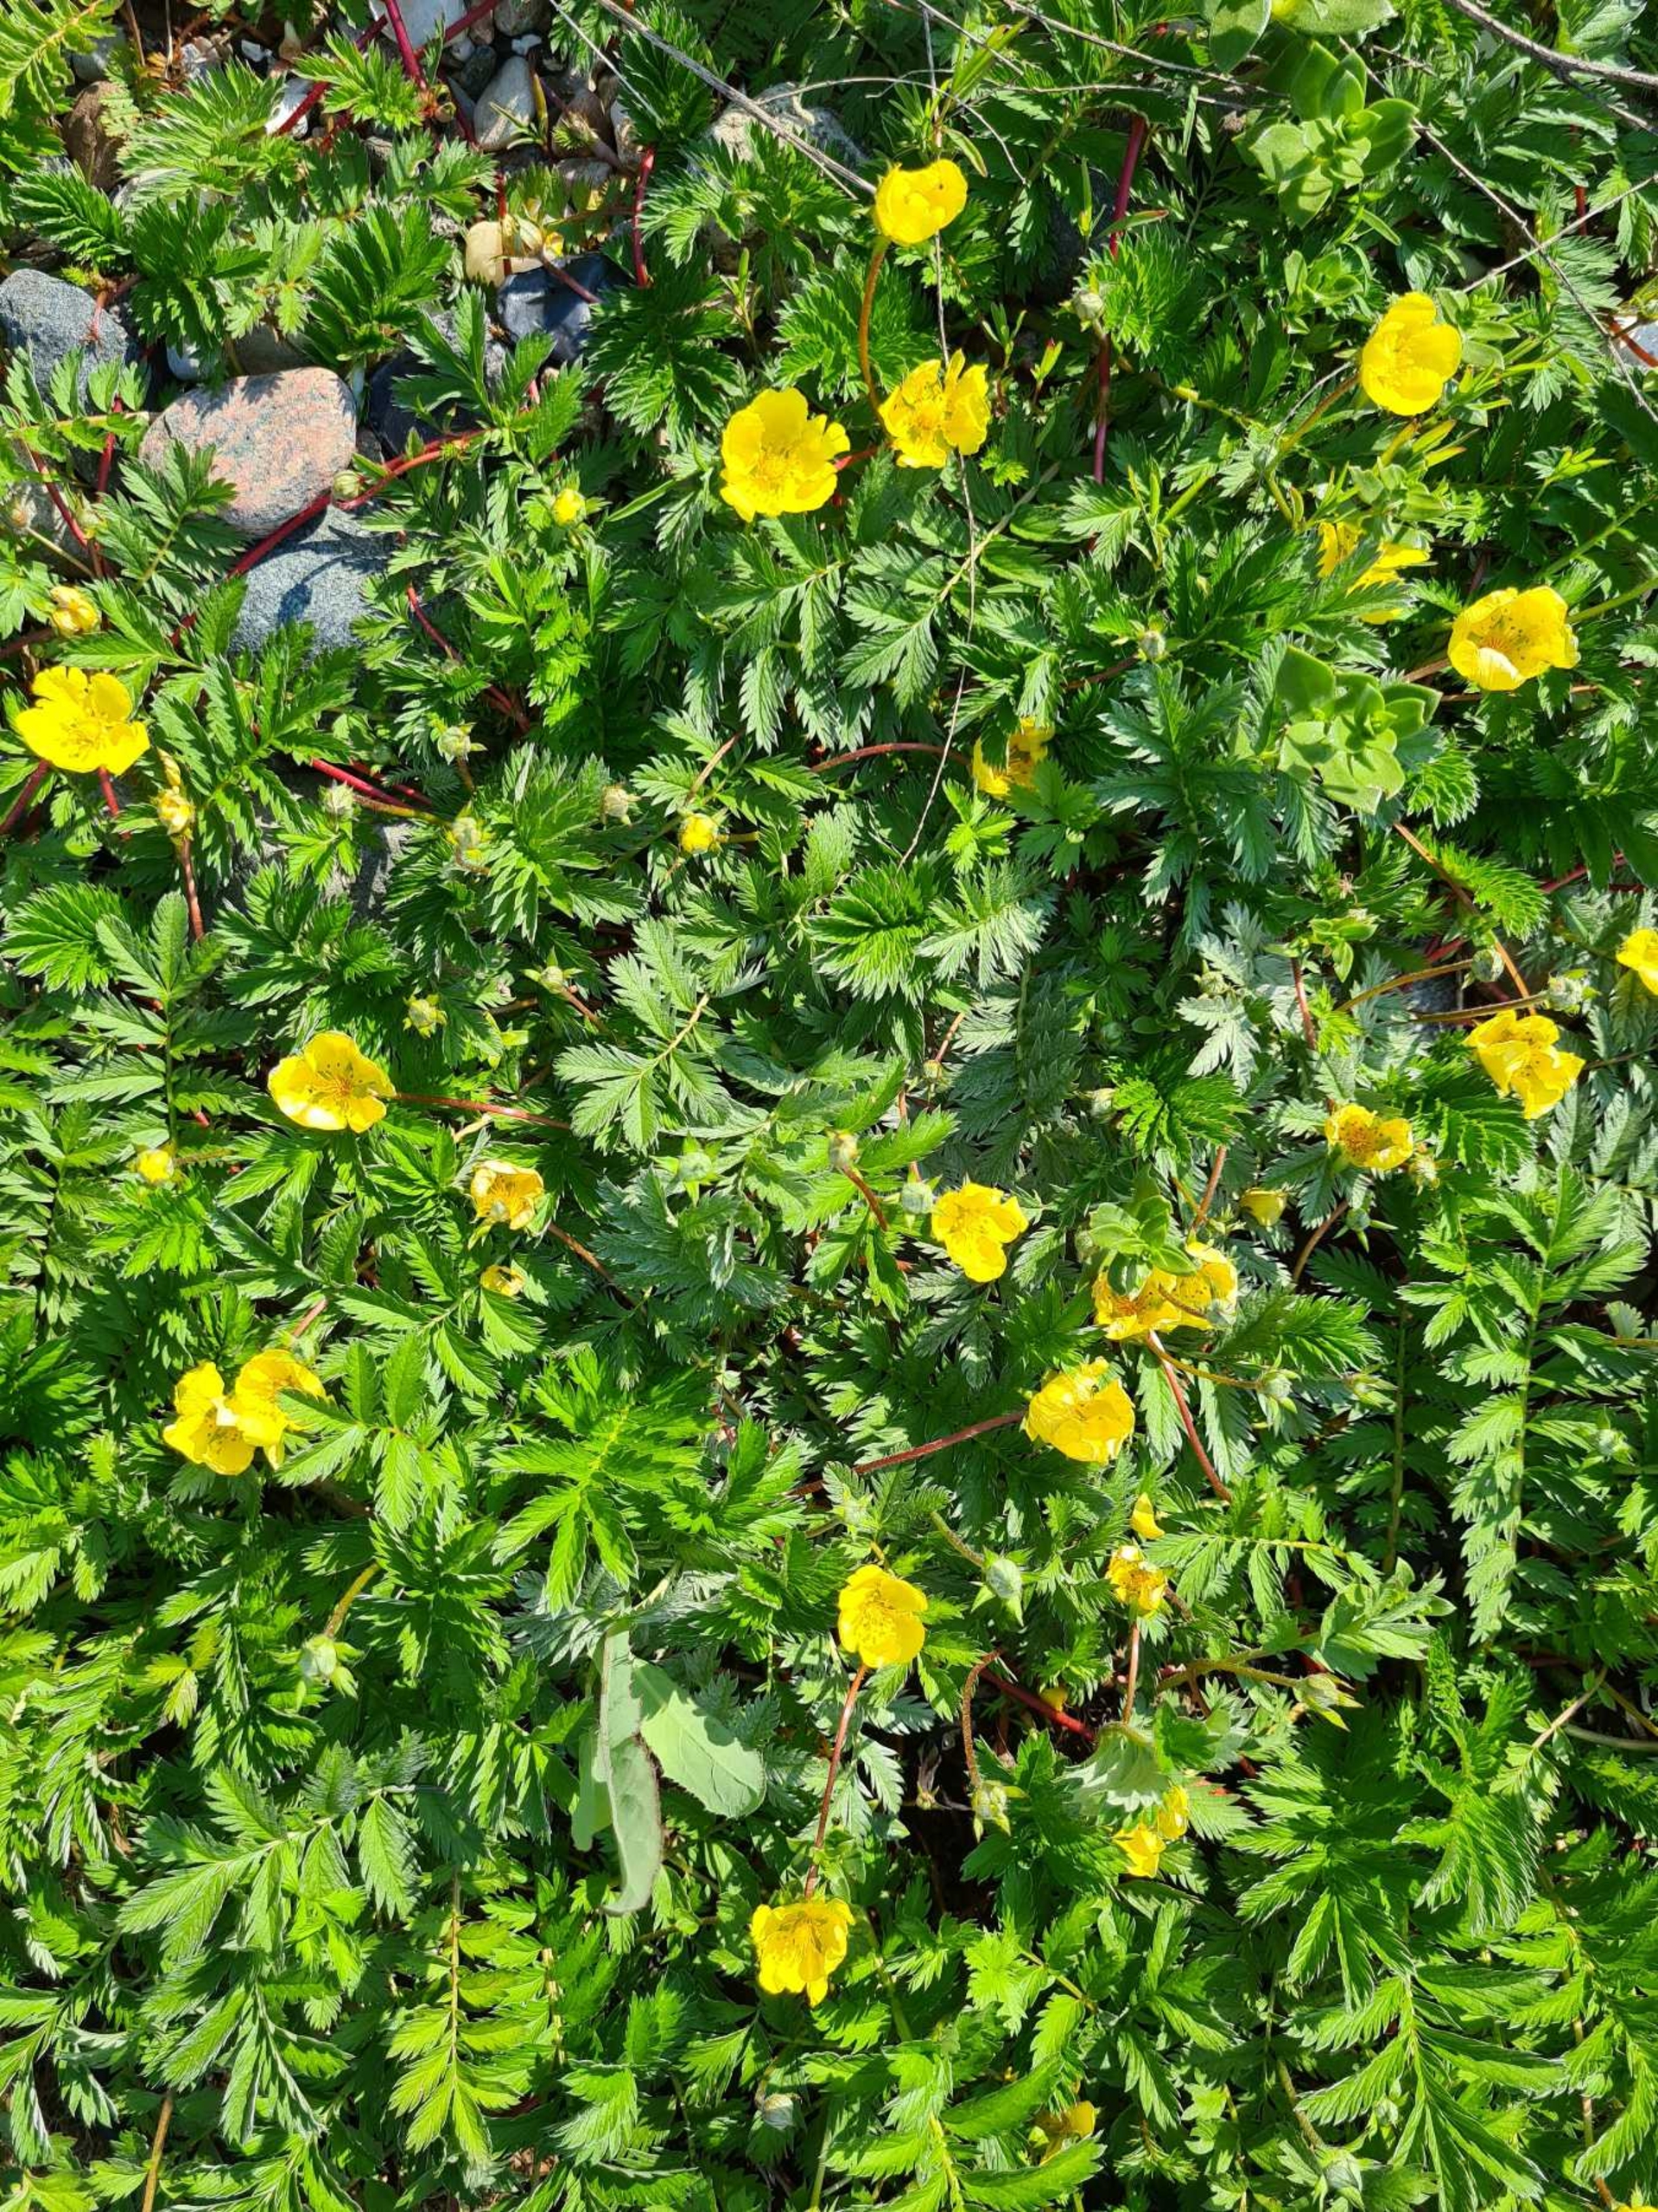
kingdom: Plantae
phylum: Tracheophyta
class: Magnoliopsida
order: Rosales
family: Rosaceae
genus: Argentina
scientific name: Argentina anserina
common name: Gåsepotentil
